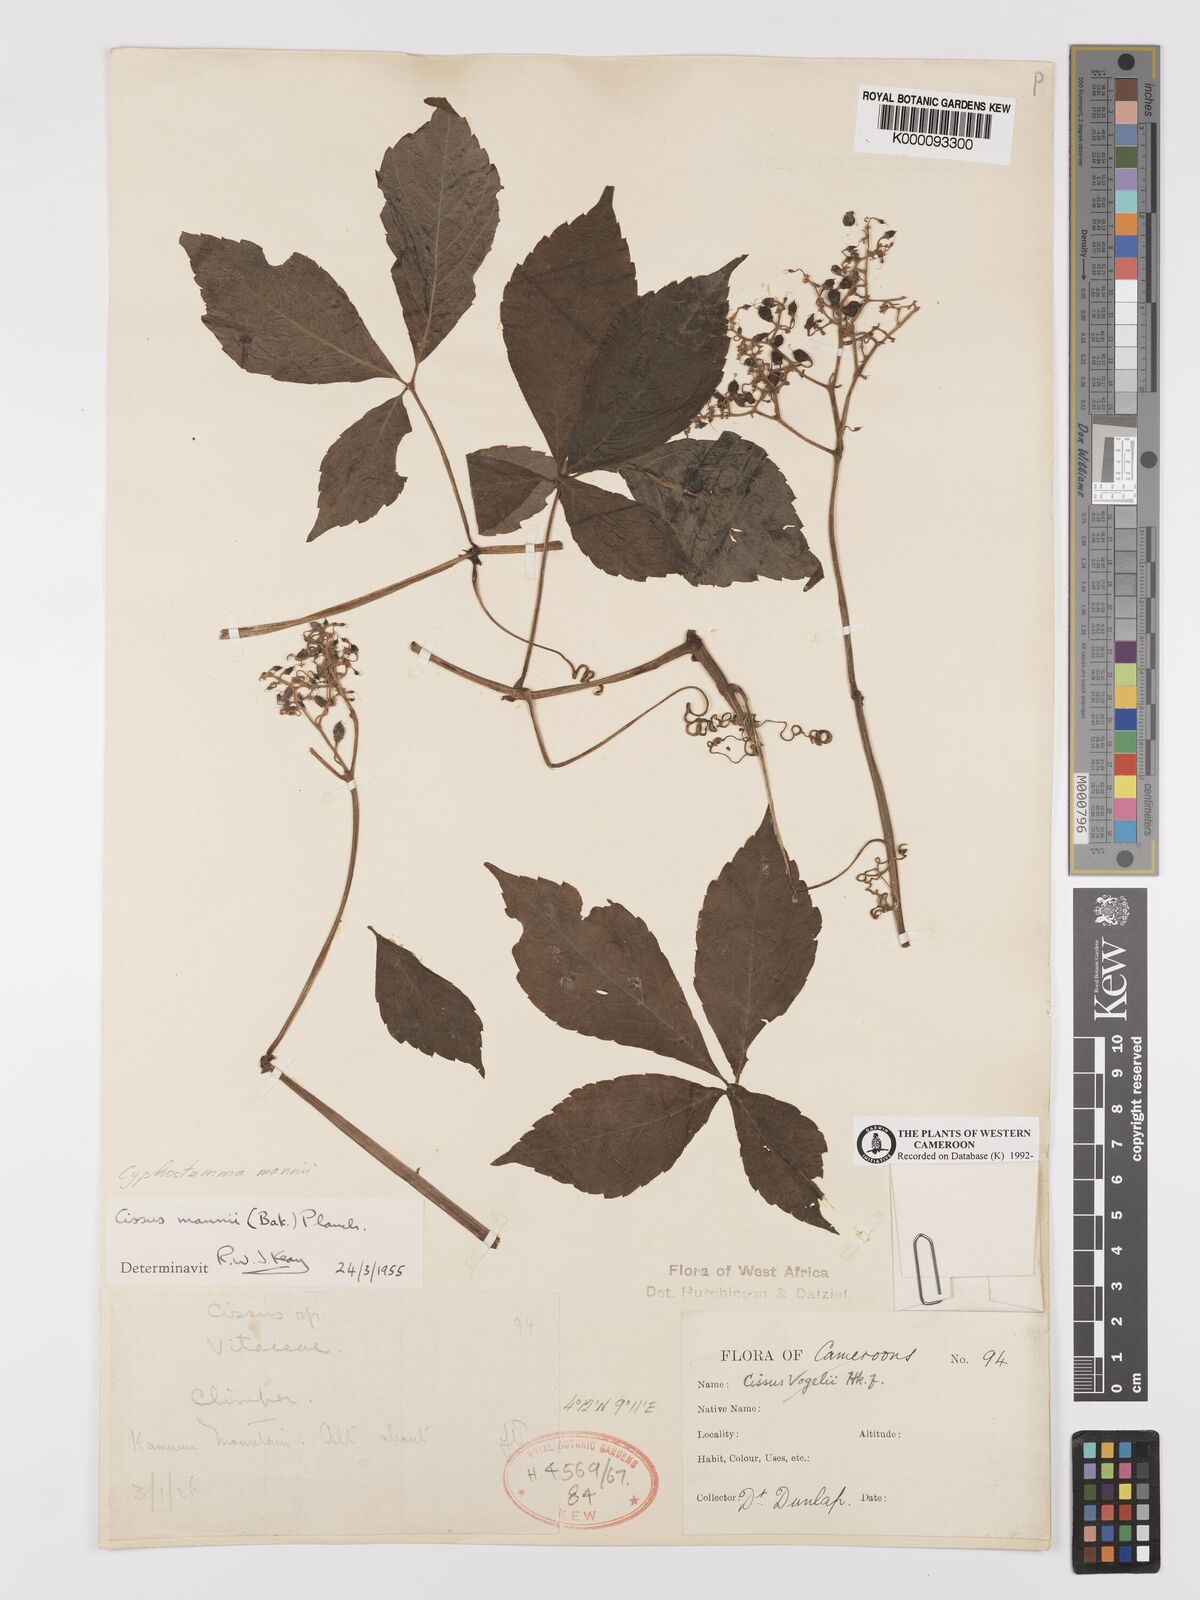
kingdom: Plantae
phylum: Tracheophyta
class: Magnoliopsida
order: Vitales
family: Vitaceae
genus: Cyphostemma
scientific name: Cyphostemma mannii
